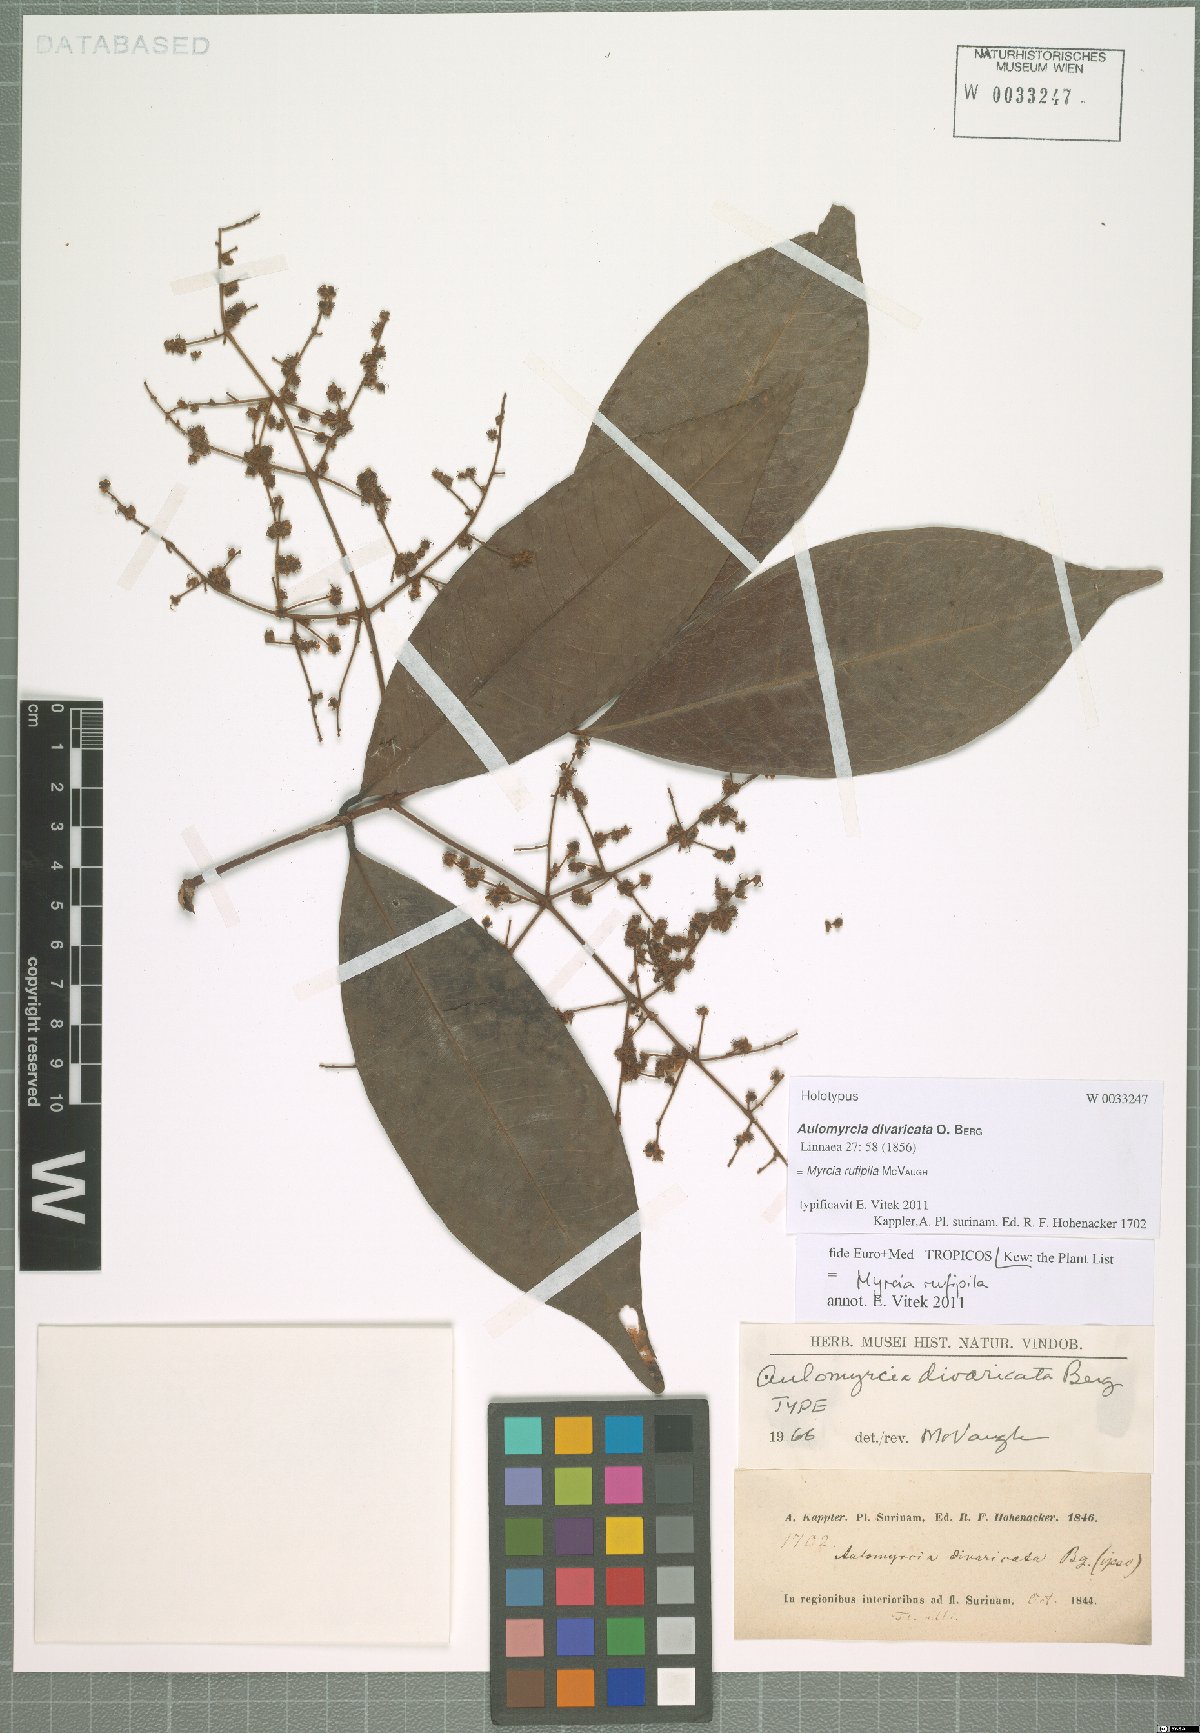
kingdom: Plantae
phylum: Tracheophyta
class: Magnoliopsida
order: Myrtales
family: Myrtaceae
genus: Myrcia
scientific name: Myrcia rufipila
